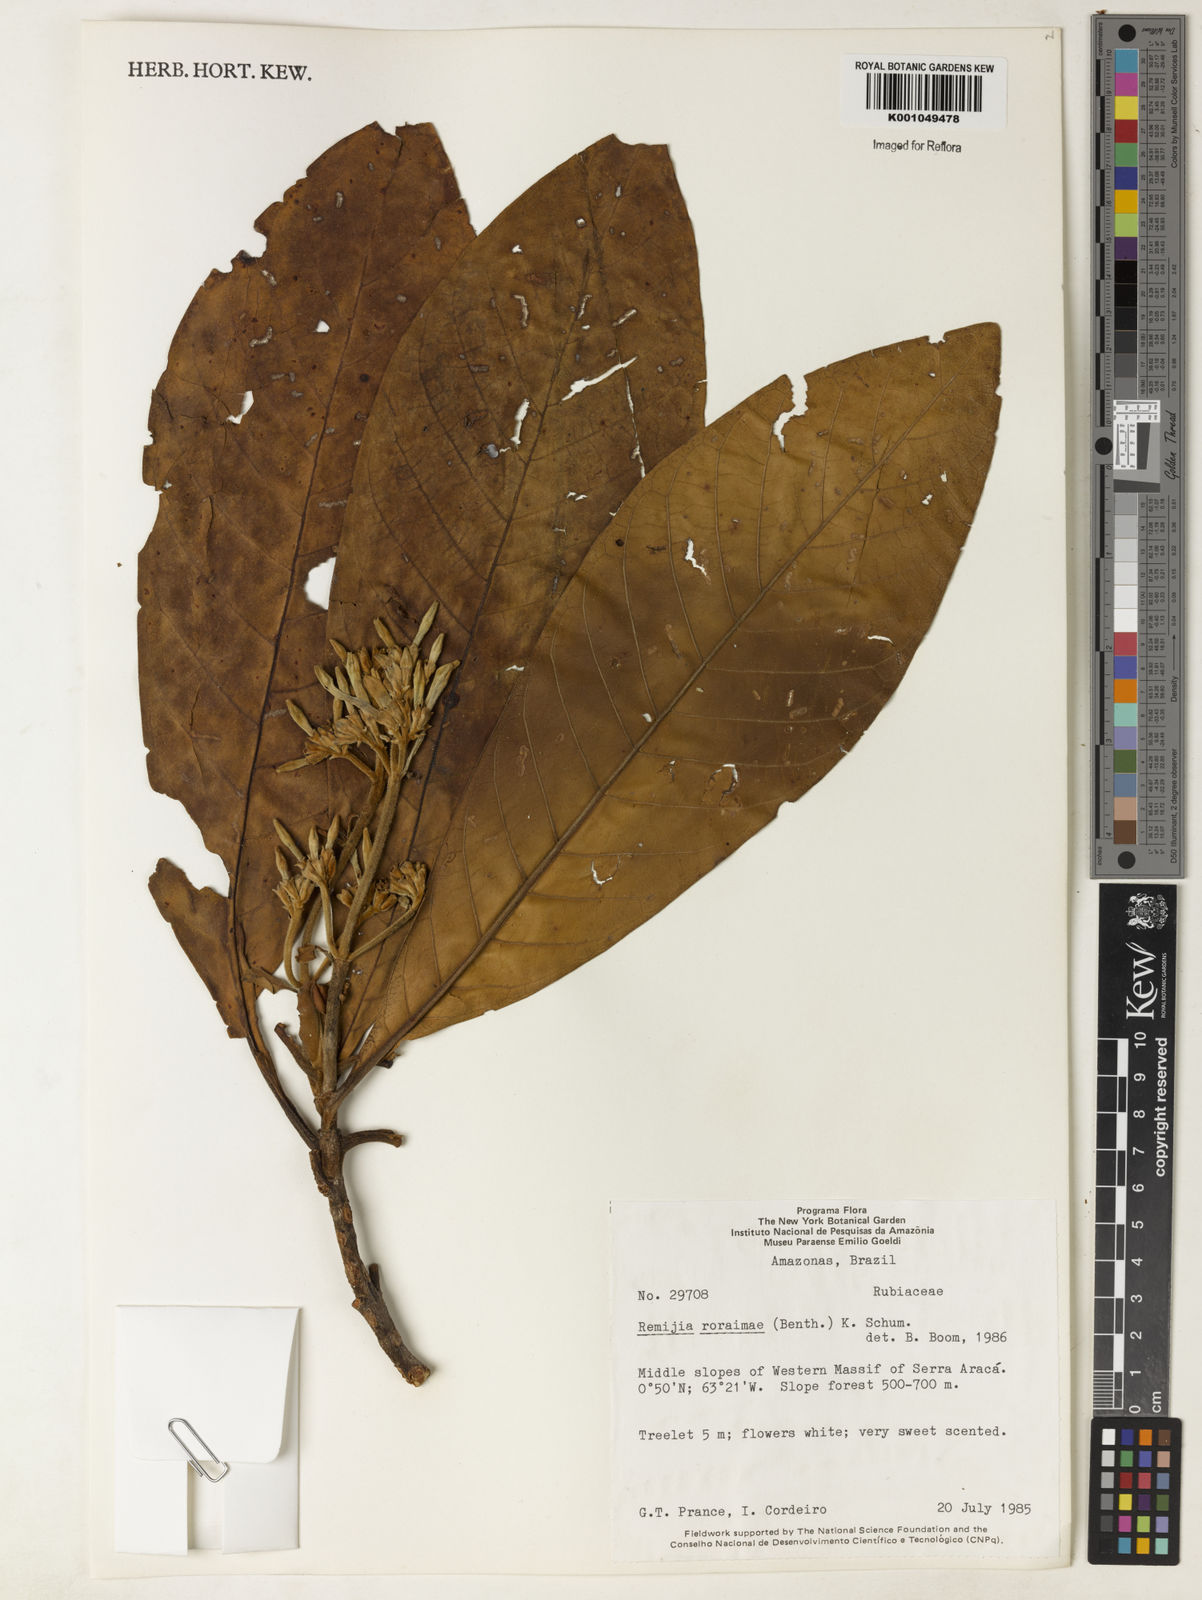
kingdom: Plantae
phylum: Tracheophyta
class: Magnoliopsida
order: Gentianales
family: Rubiaceae
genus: Remijia
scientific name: Remijia roraimae
